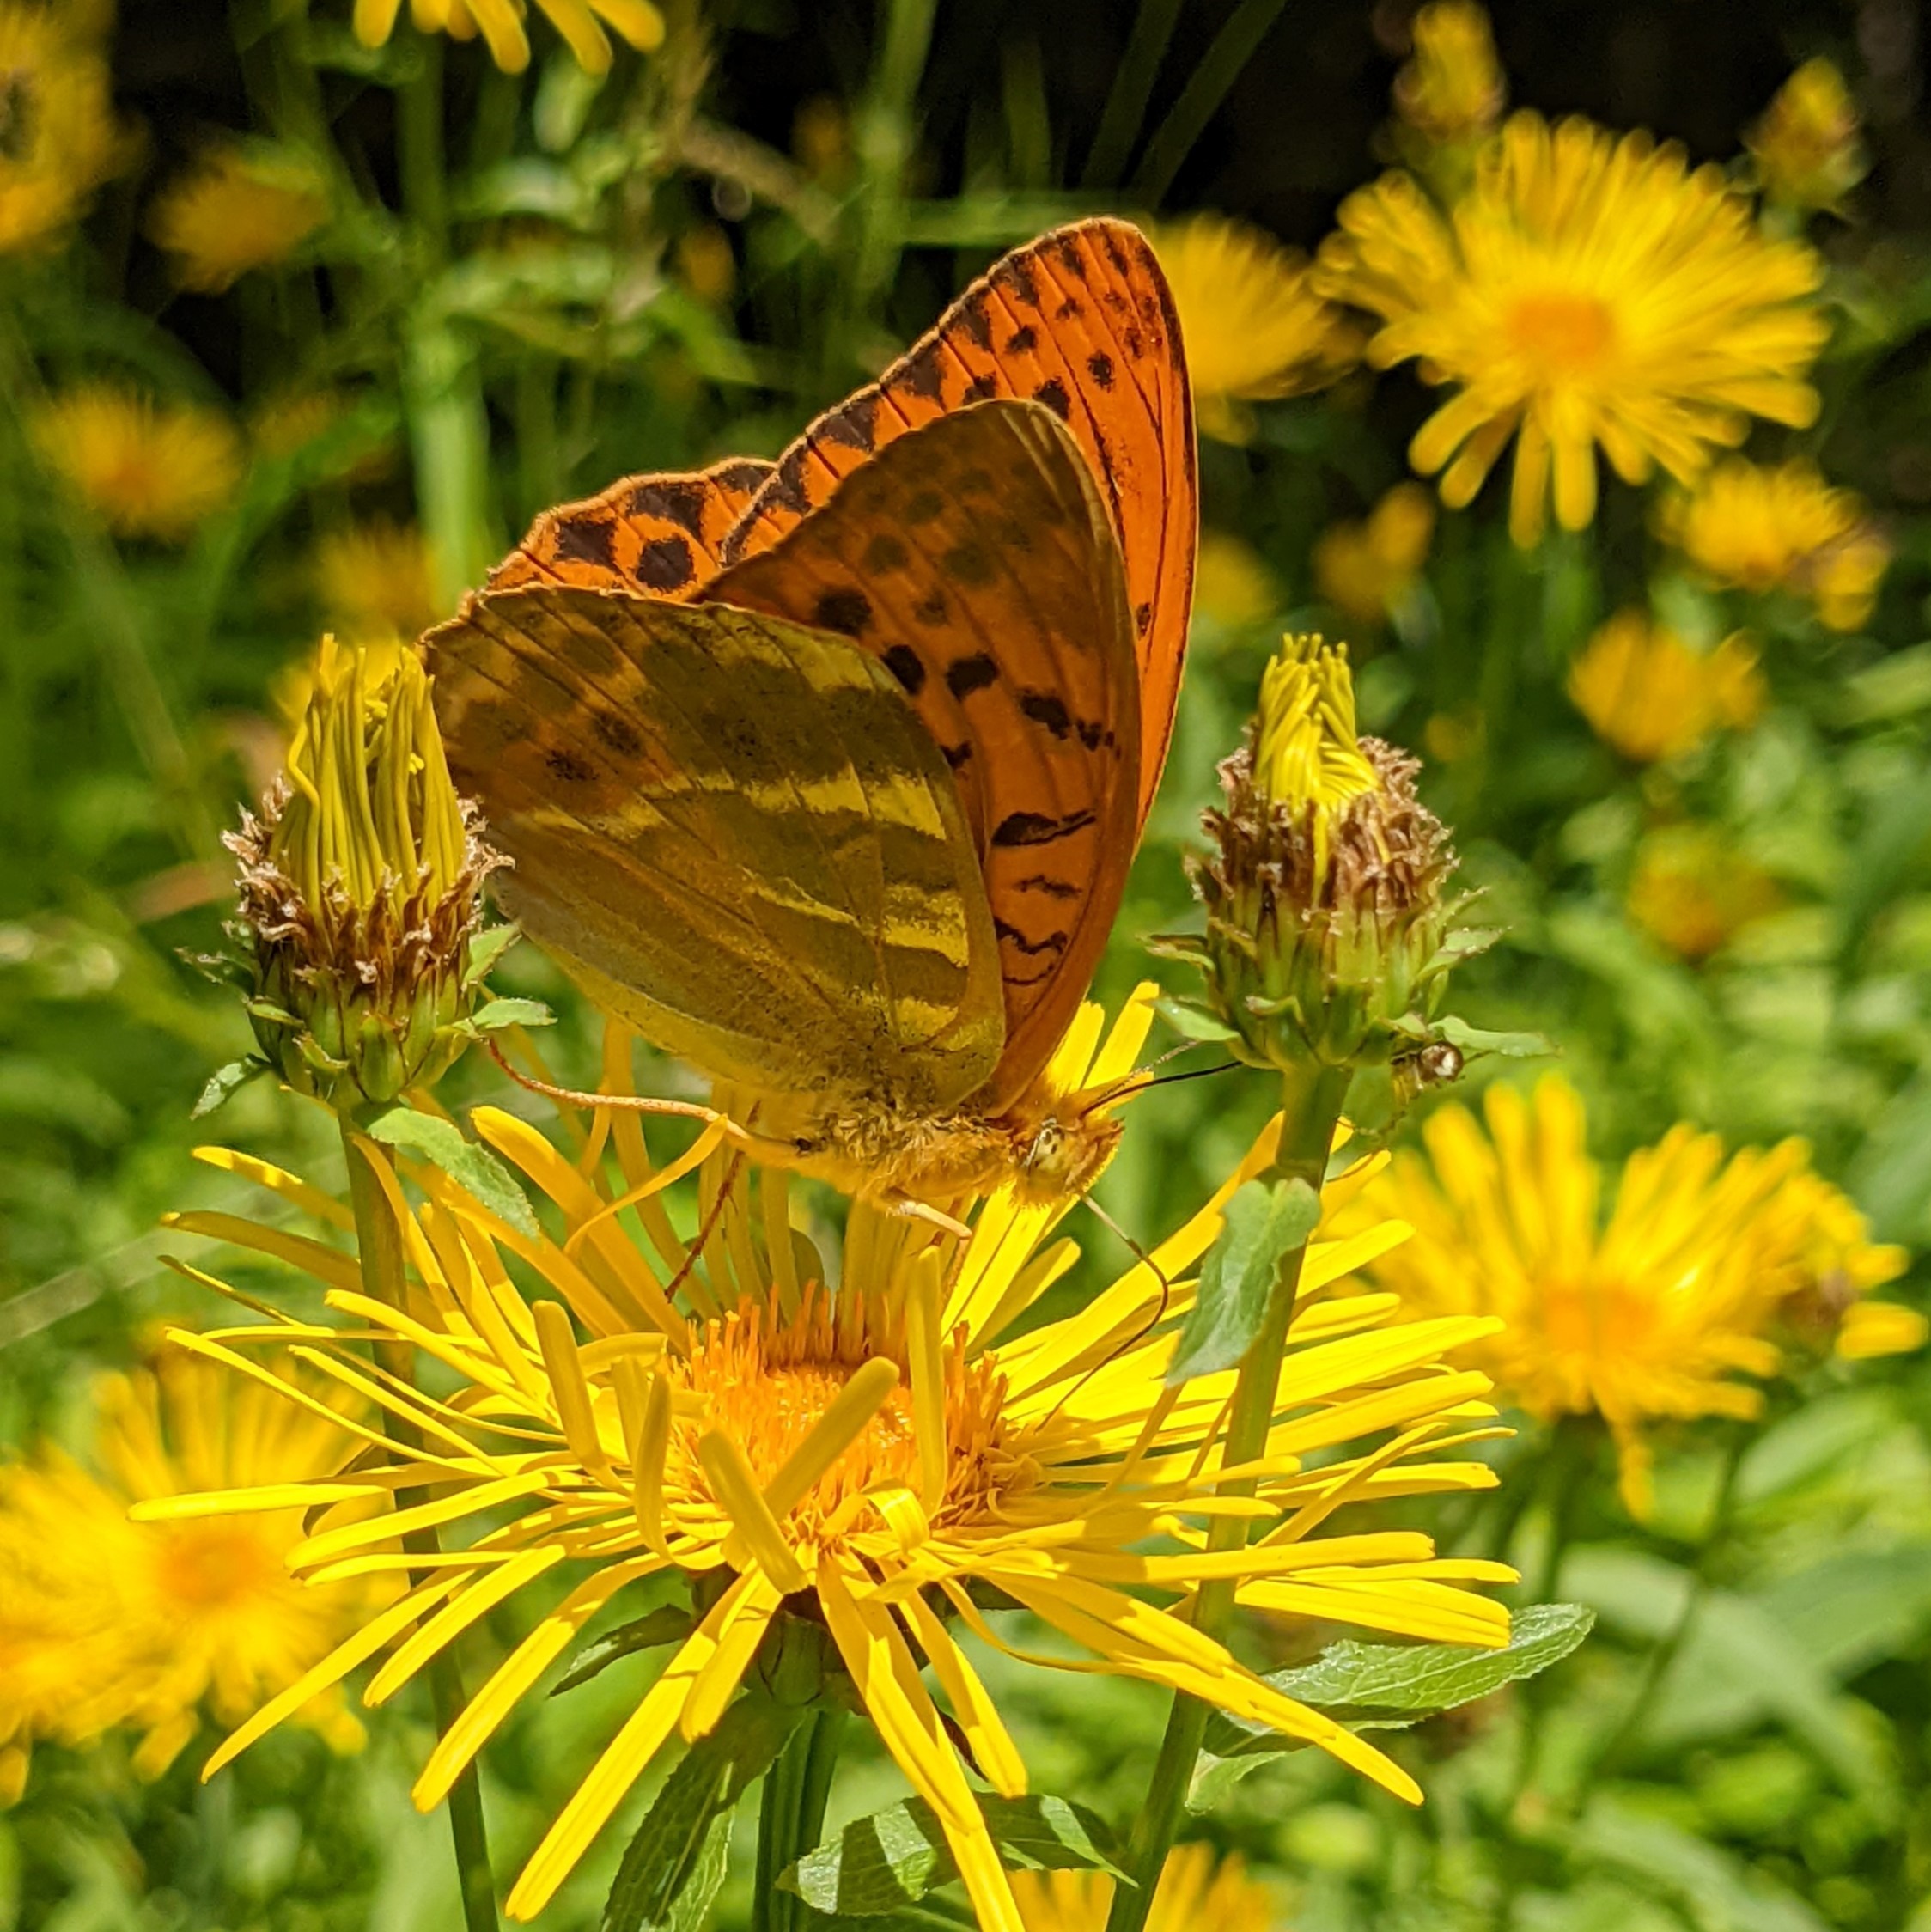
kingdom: Animalia
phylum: Arthropoda
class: Insecta
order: Lepidoptera
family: Nymphalidae
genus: Argynnis
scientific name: Argynnis paphia
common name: Kejserkåbe
